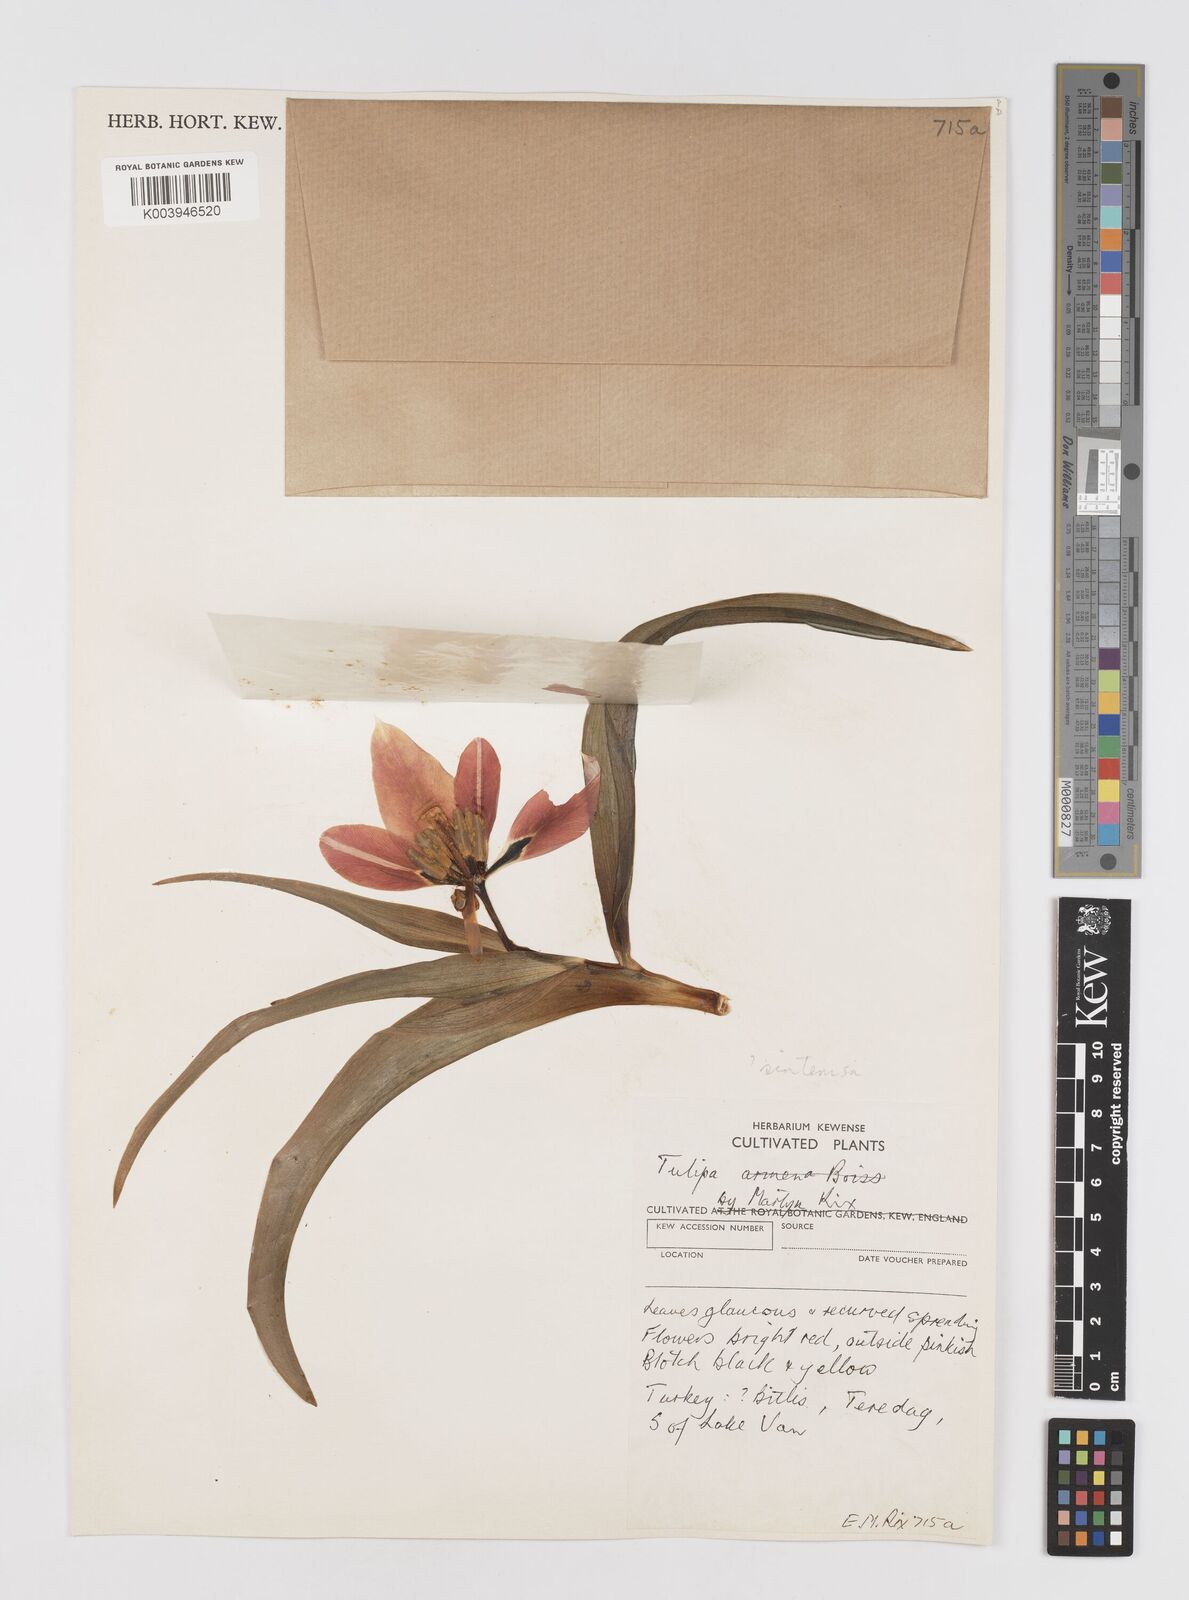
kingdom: Plantae
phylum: Tracheophyta
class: Liliopsida
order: Liliales
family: Liliaceae
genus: Tulipa
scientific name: Tulipa
